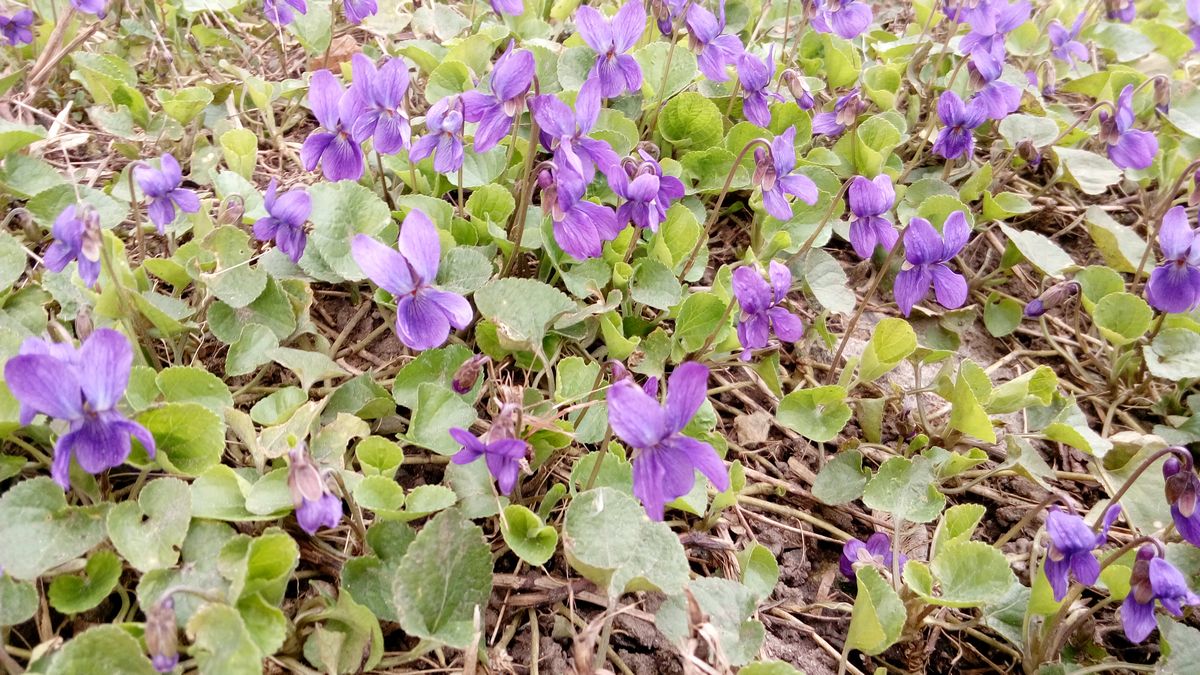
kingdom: Plantae
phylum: Tracheophyta
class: Magnoliopsida
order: Malpighiales
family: Violaceae
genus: Viola
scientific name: Viola odorata
